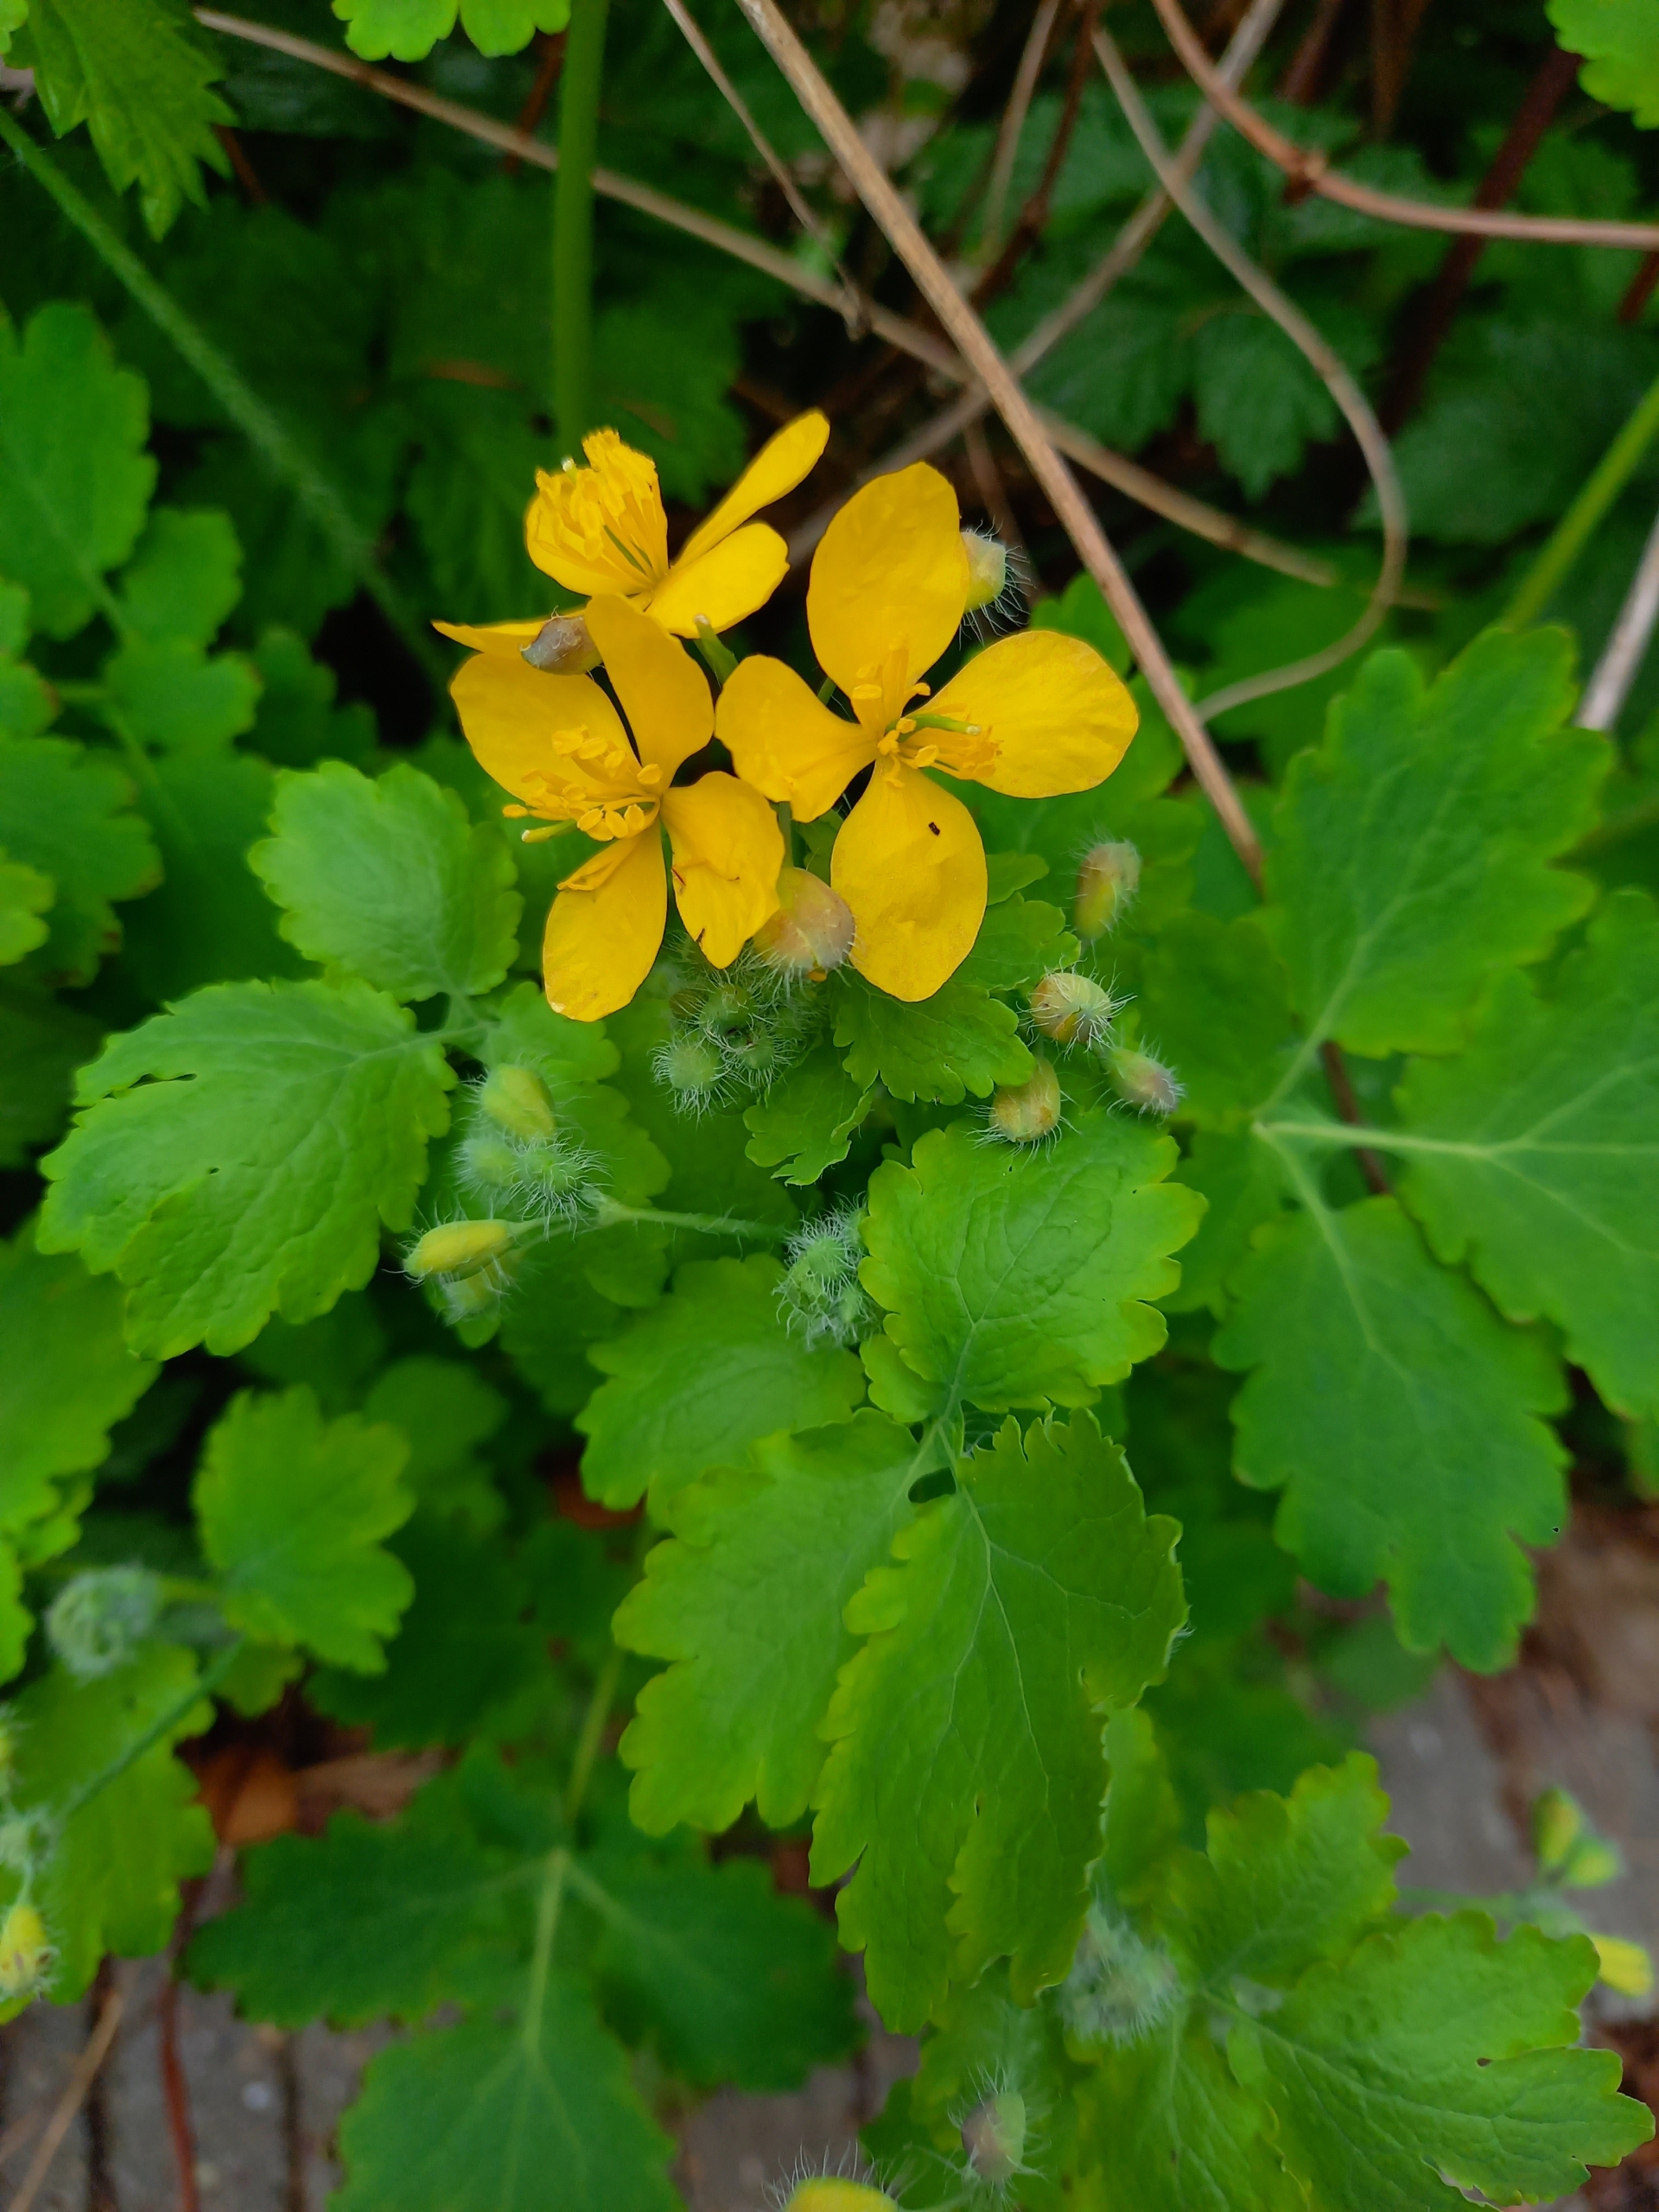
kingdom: Plantae
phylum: Tracheophyta
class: Magnoliopsida
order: Ranunculales
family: Papaveraceae
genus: Chelidonium
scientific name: Chelidonium majus
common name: Svaleurt
